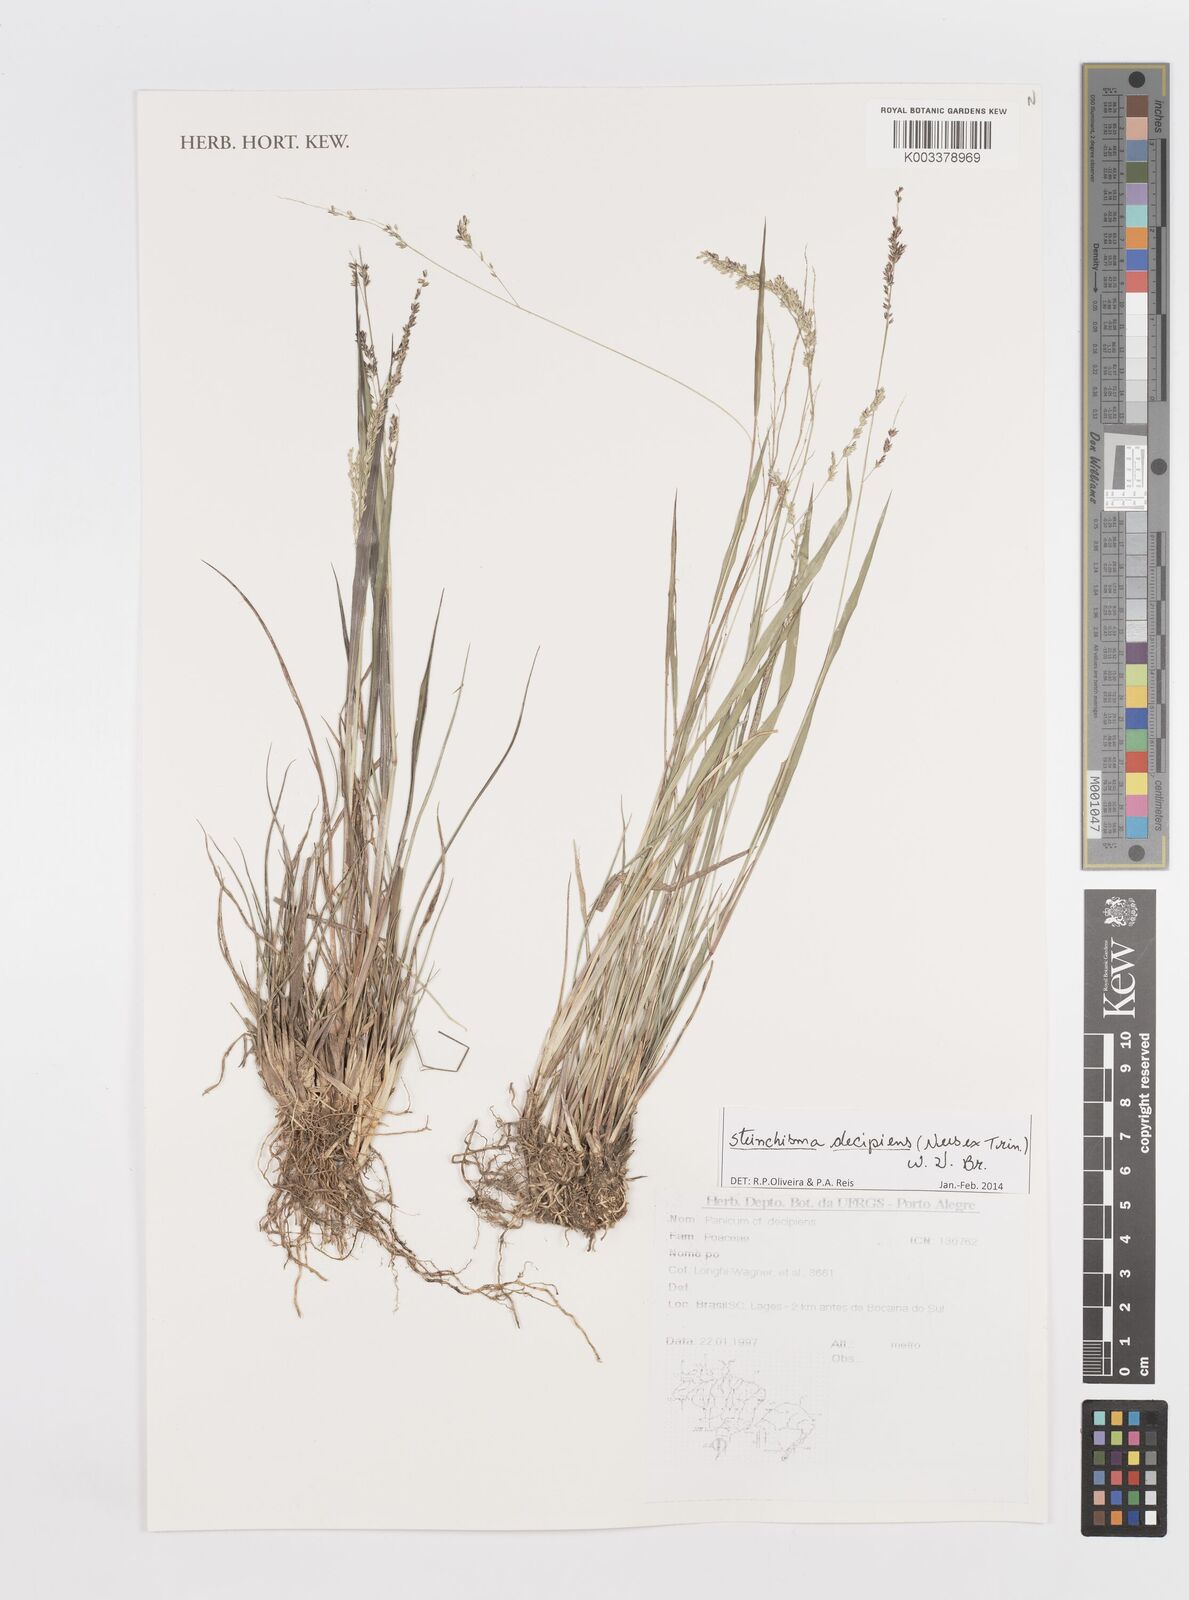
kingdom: Plantae
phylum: Tracheophyta
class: Liliopsida
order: Poales
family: Poaceae
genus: Steinchisma
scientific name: Steinchisma decipiens
